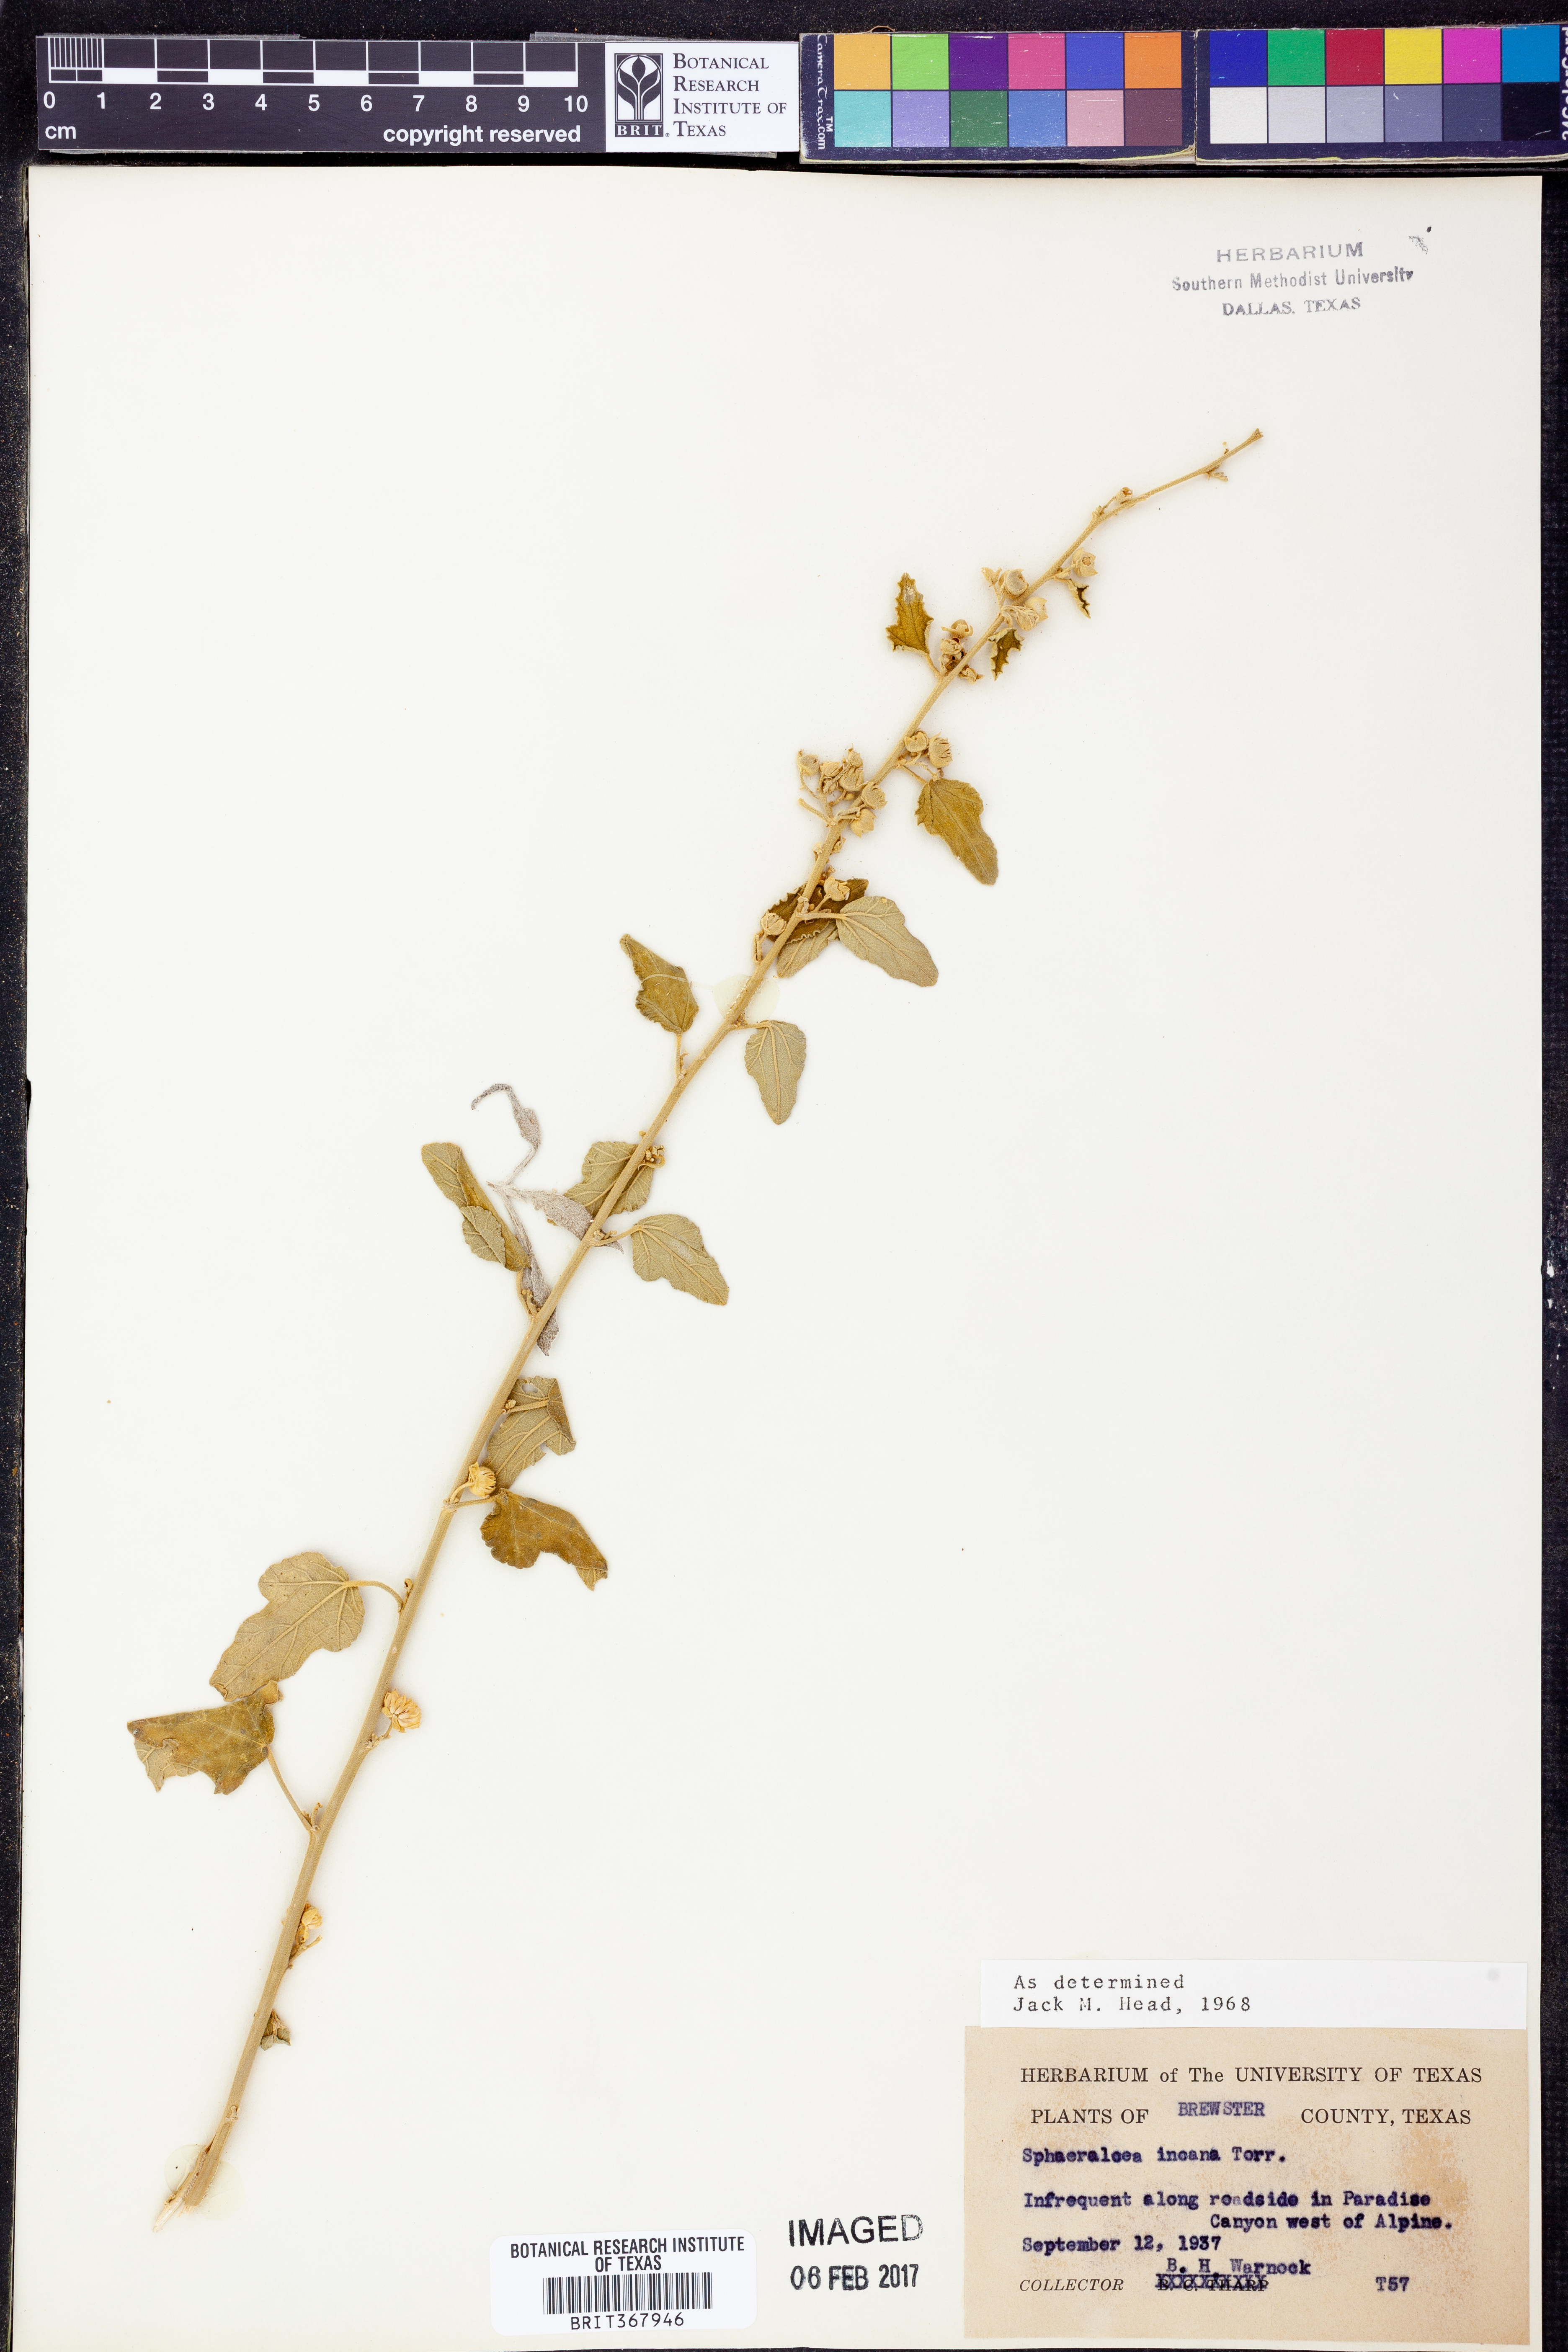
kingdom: Plantae
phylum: Tracheophyta
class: Magnoliopsida
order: Malvales
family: Malvaceae
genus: Sphaeralcea
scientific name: Sphaeralcea incana
